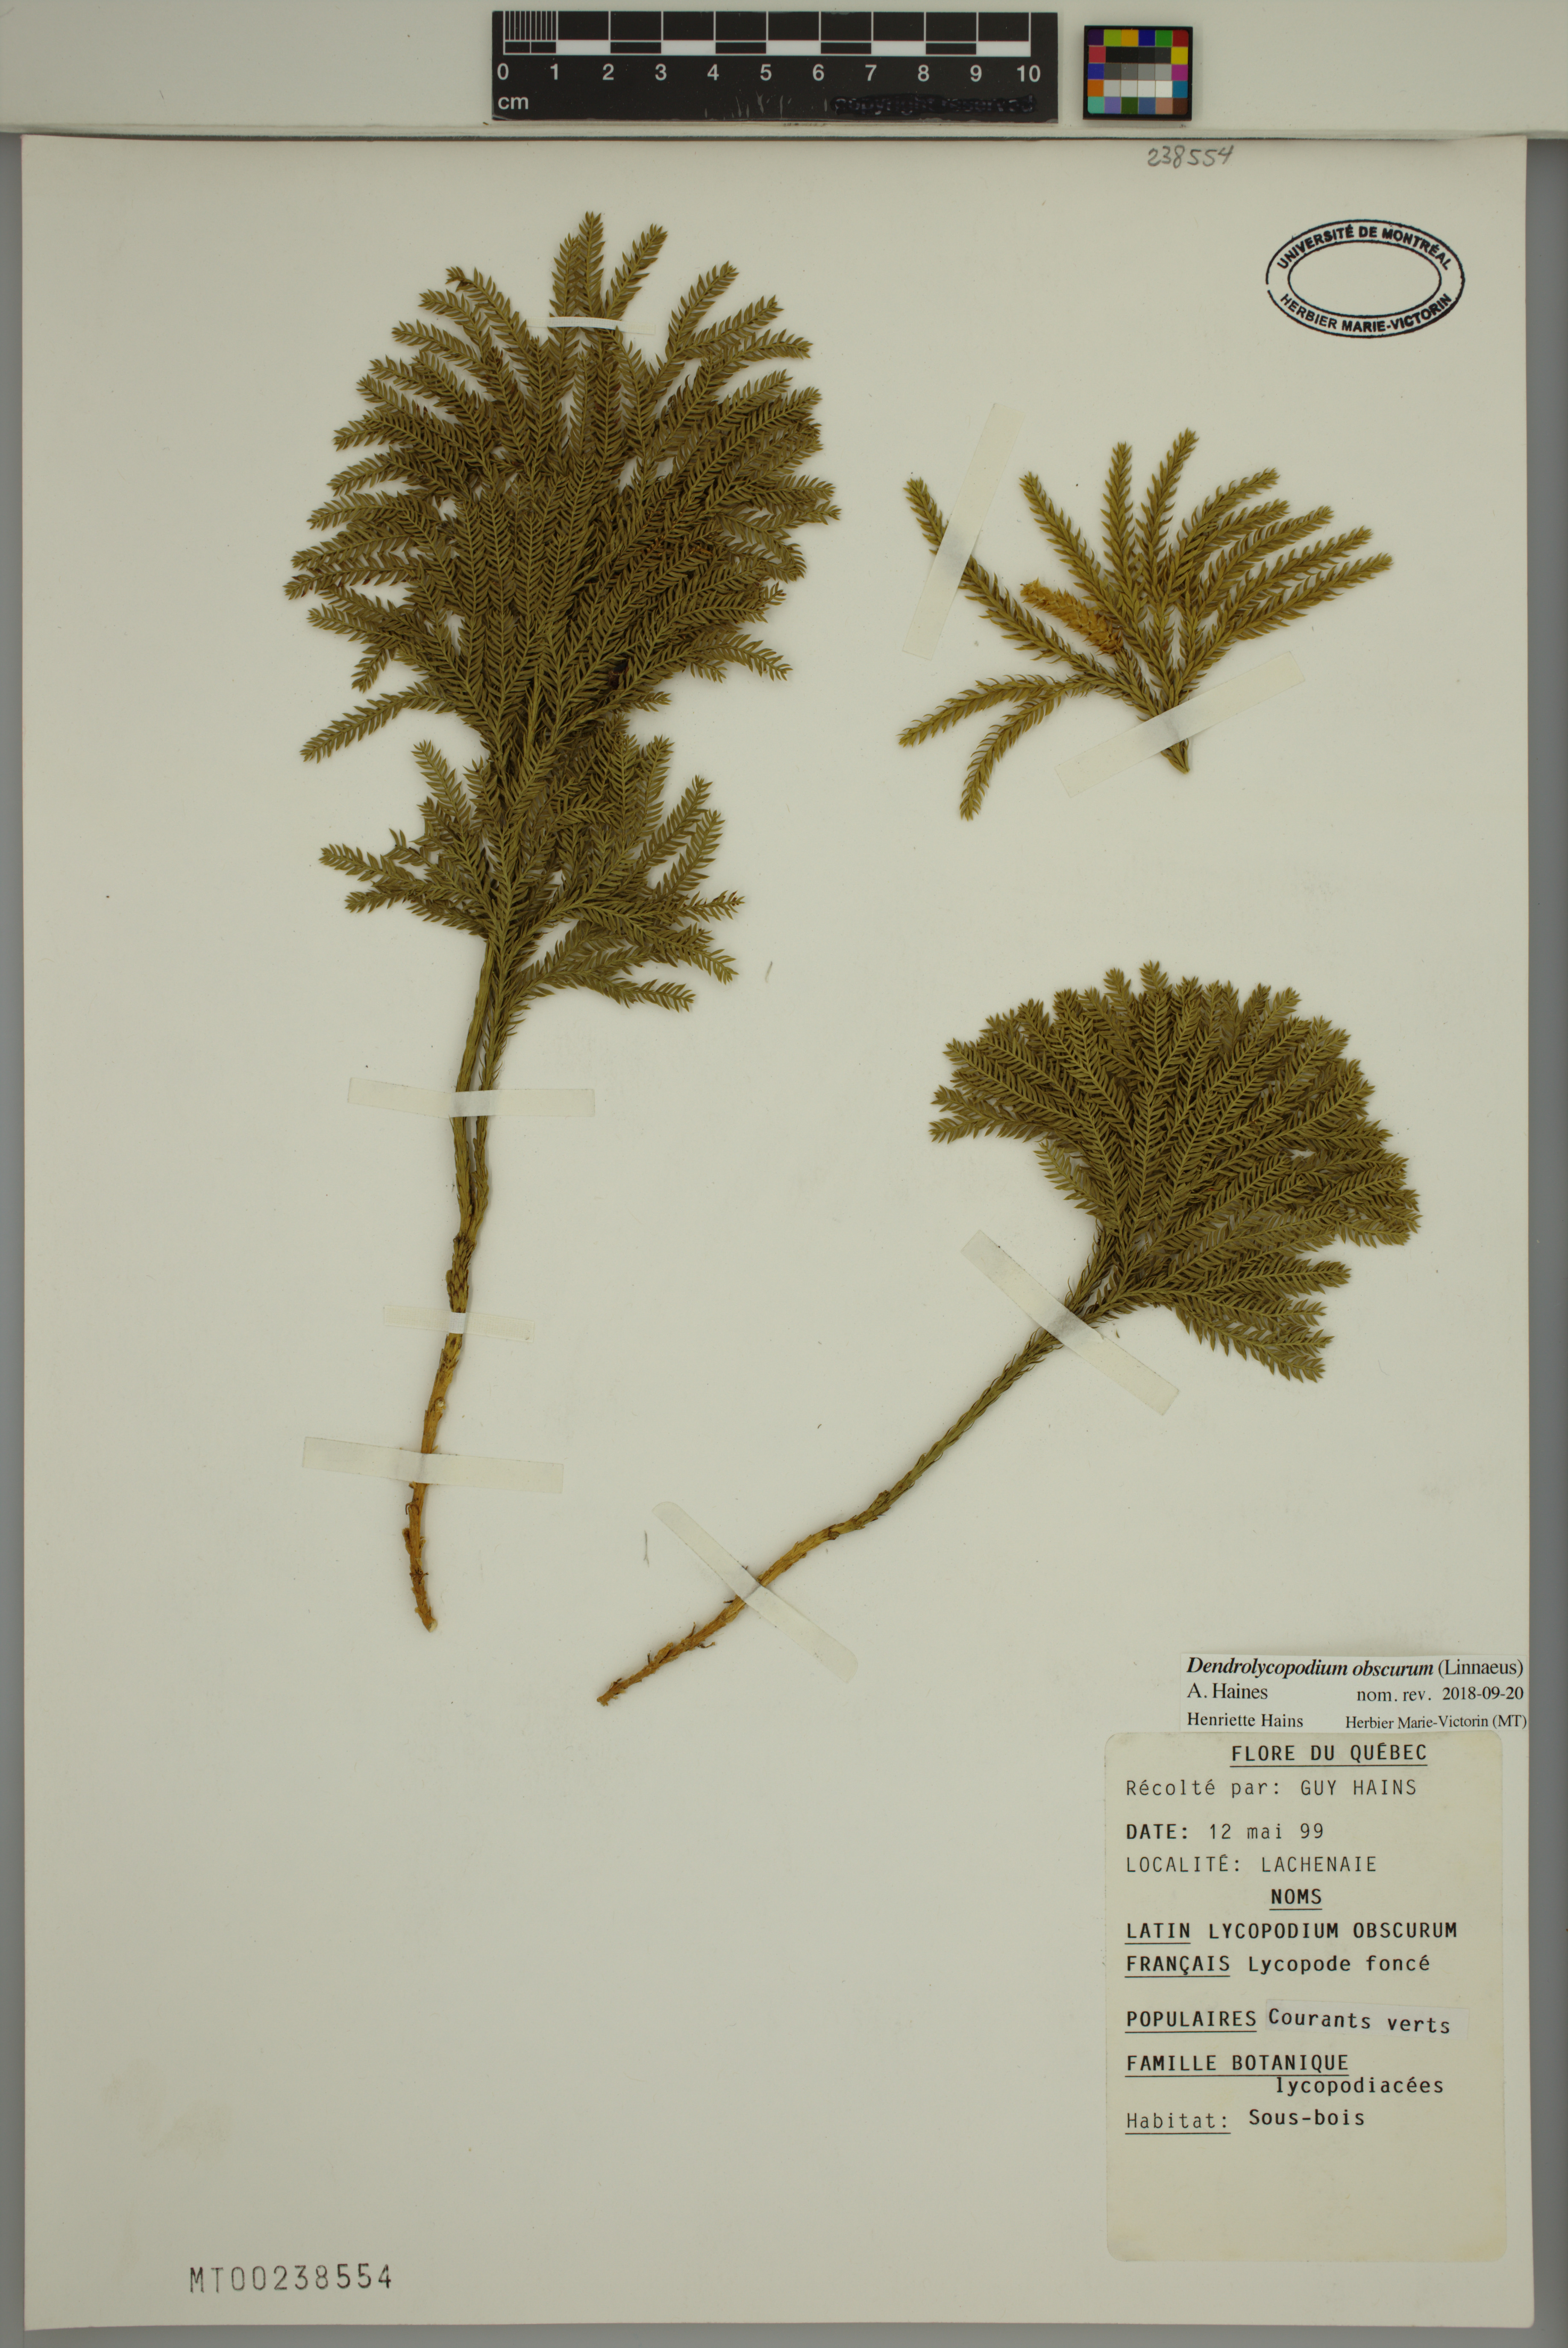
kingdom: Plantae
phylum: Tracheophyta
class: Lycopodiopsida
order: Lycopodiales
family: Lycopodiaceae
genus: Dendrolycopodium
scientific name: Dendrolycopodium obscurum
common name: Common ground-pine
